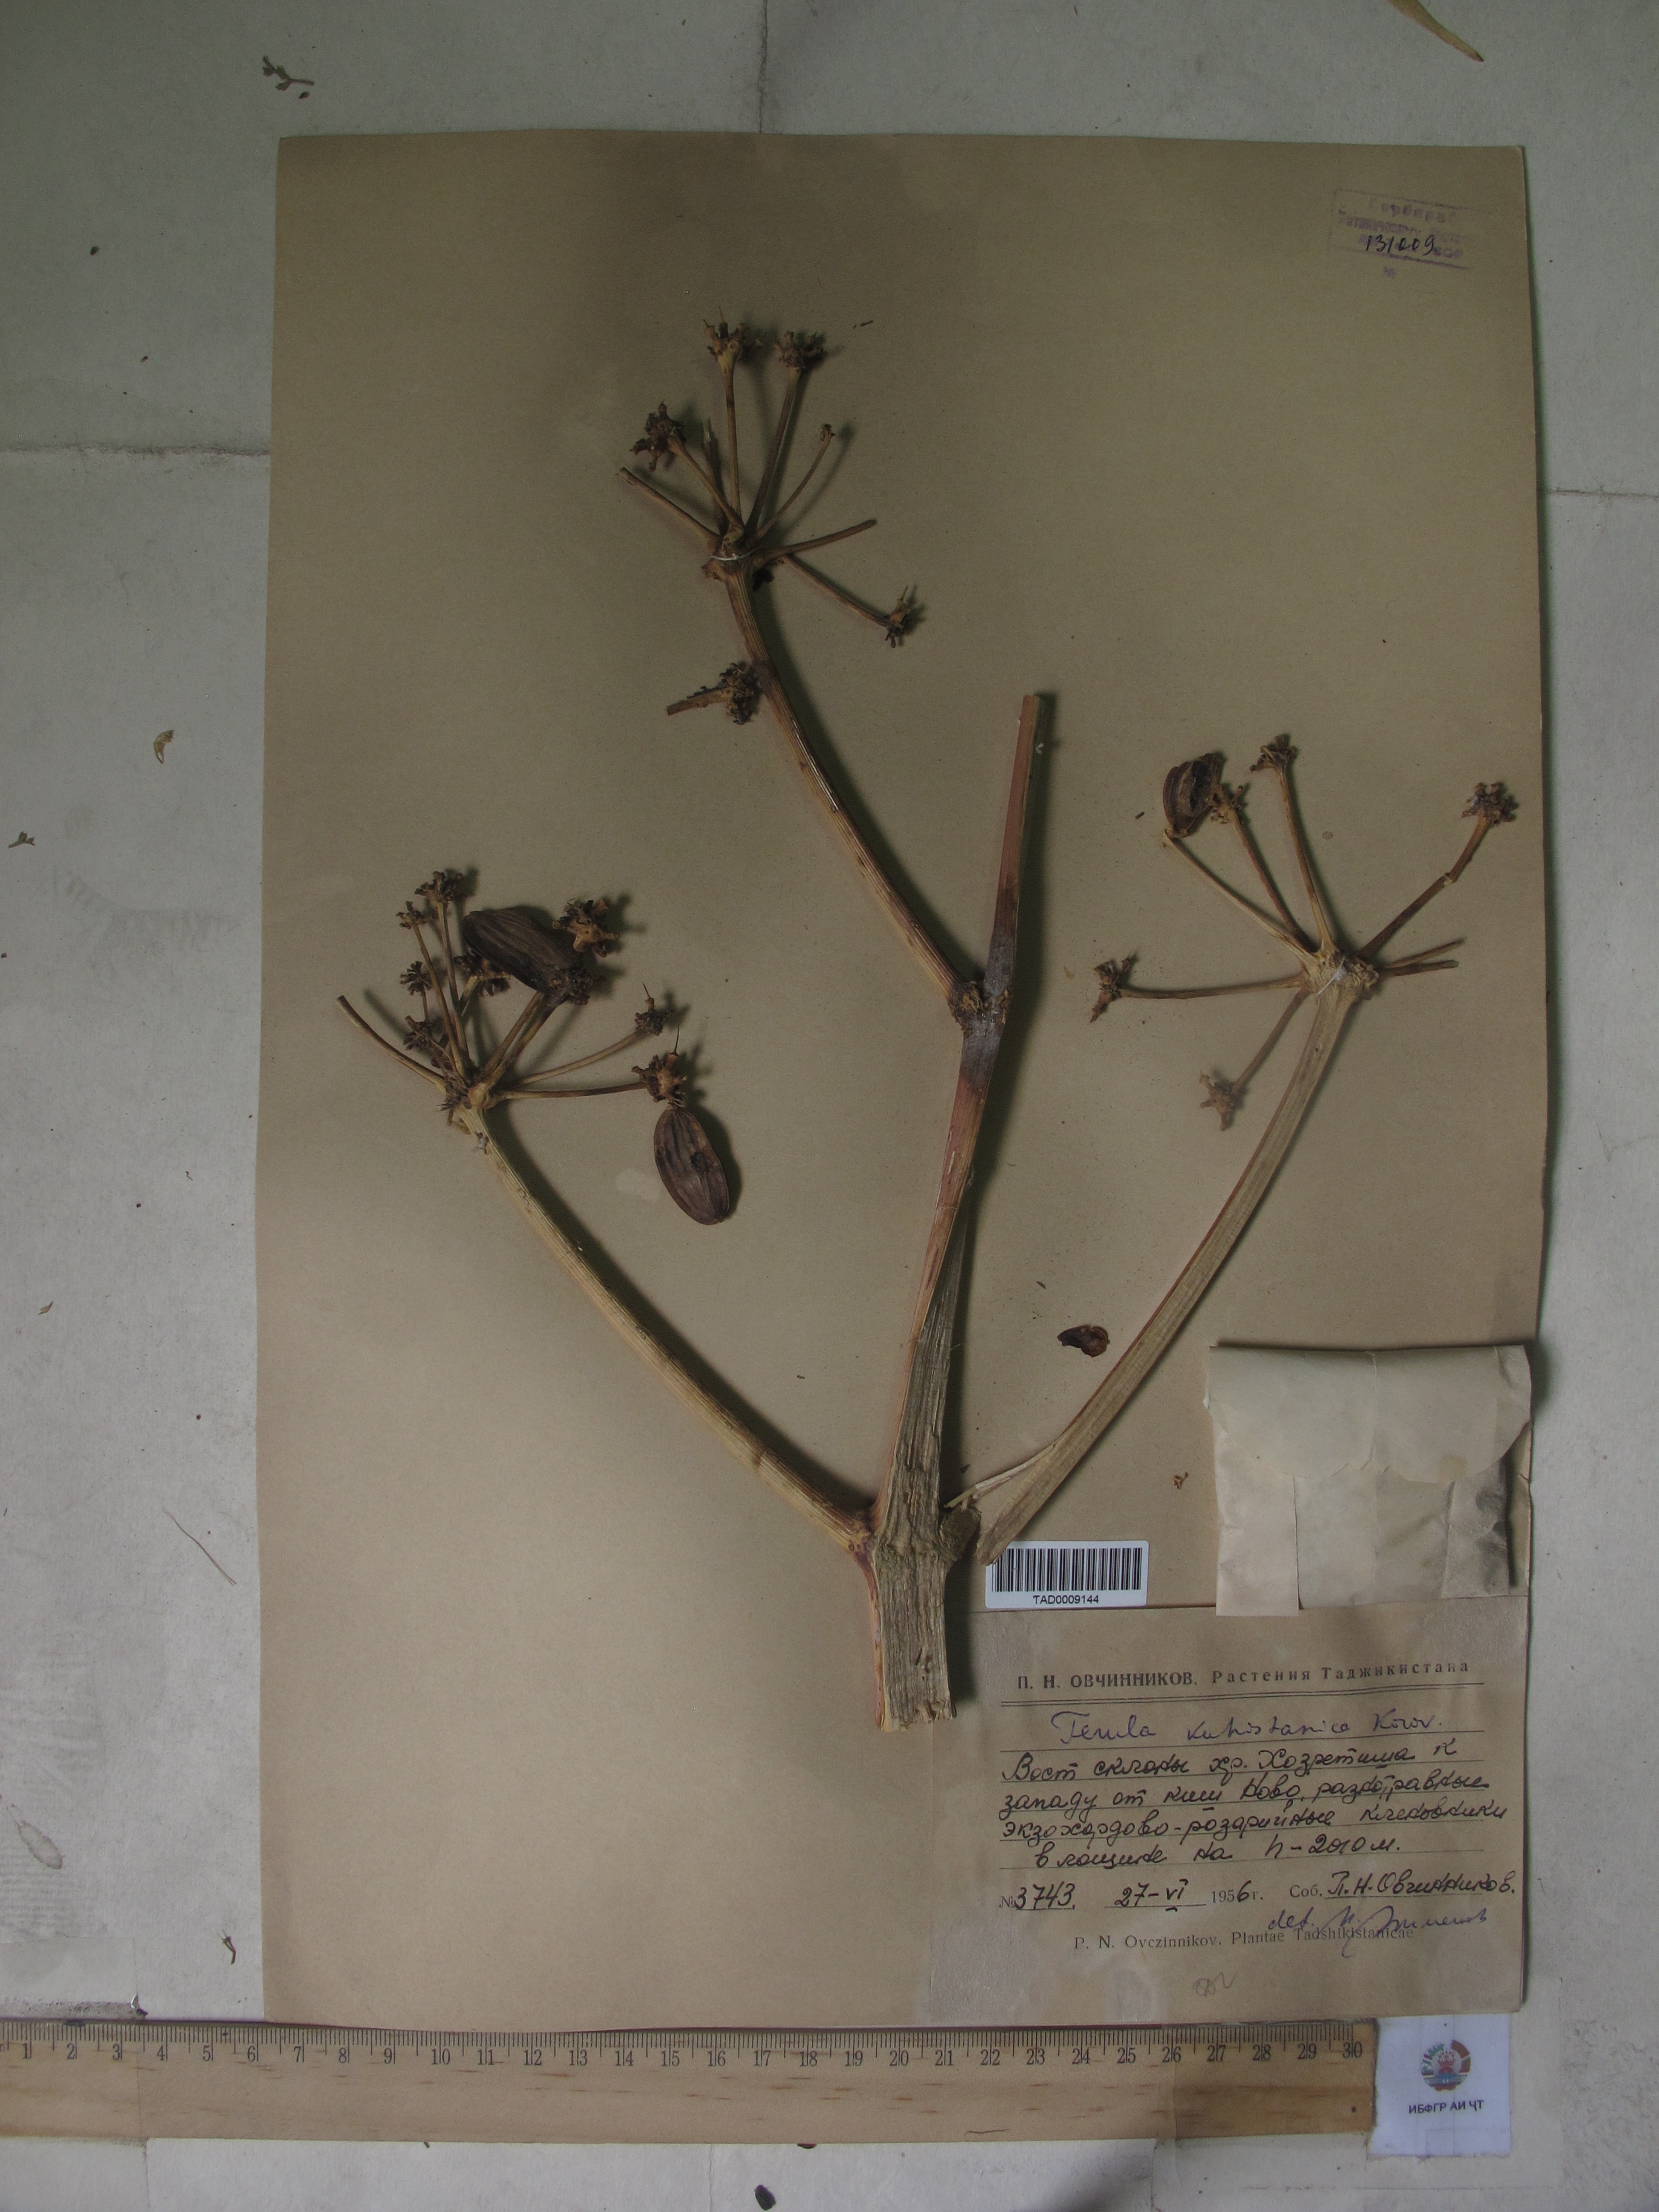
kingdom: Plantae
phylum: Tracheophyta
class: Magnoliopsida
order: Apiales
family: Apiaceae
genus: Ferula
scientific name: Ferula kuhistanica
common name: Kamol
